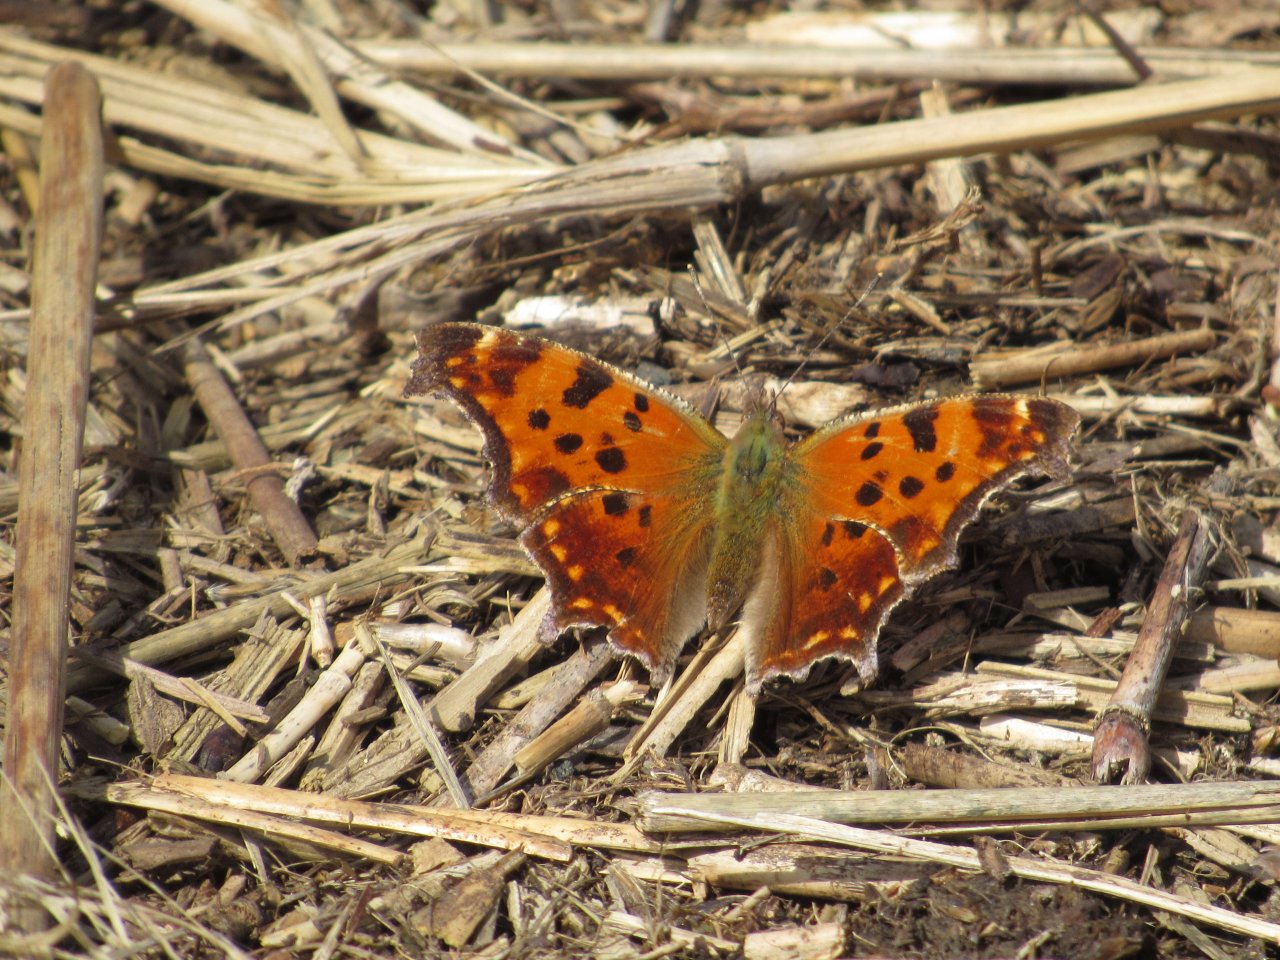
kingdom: Animalia
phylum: Arthropoda
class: Insecta
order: Lepidoptera
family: Nymphalidae
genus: Polygonia
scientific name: Polygonia comma
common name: Eastern Comma
